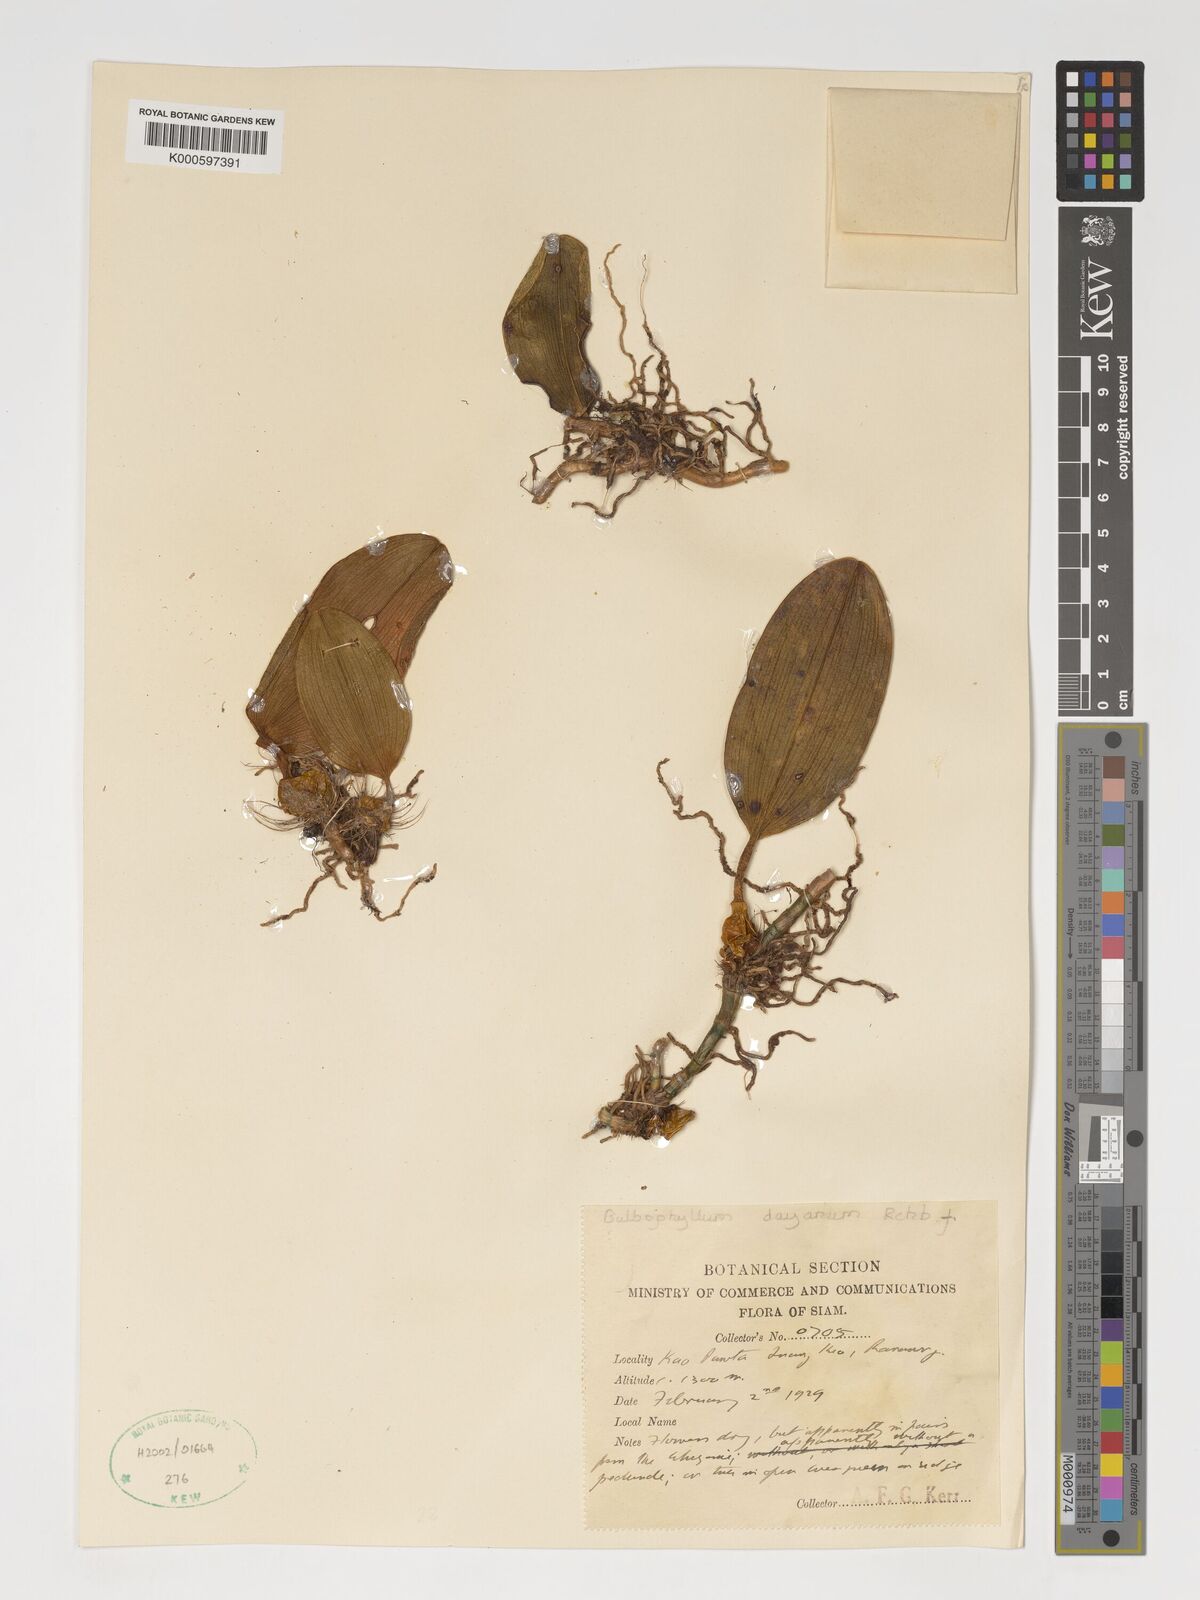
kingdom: Plantae
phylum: Tracheophyta
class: Liliopsida
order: Asparagales
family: Orchidaceae
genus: Bulbophyllum
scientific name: Bulbophyllum dayanum
